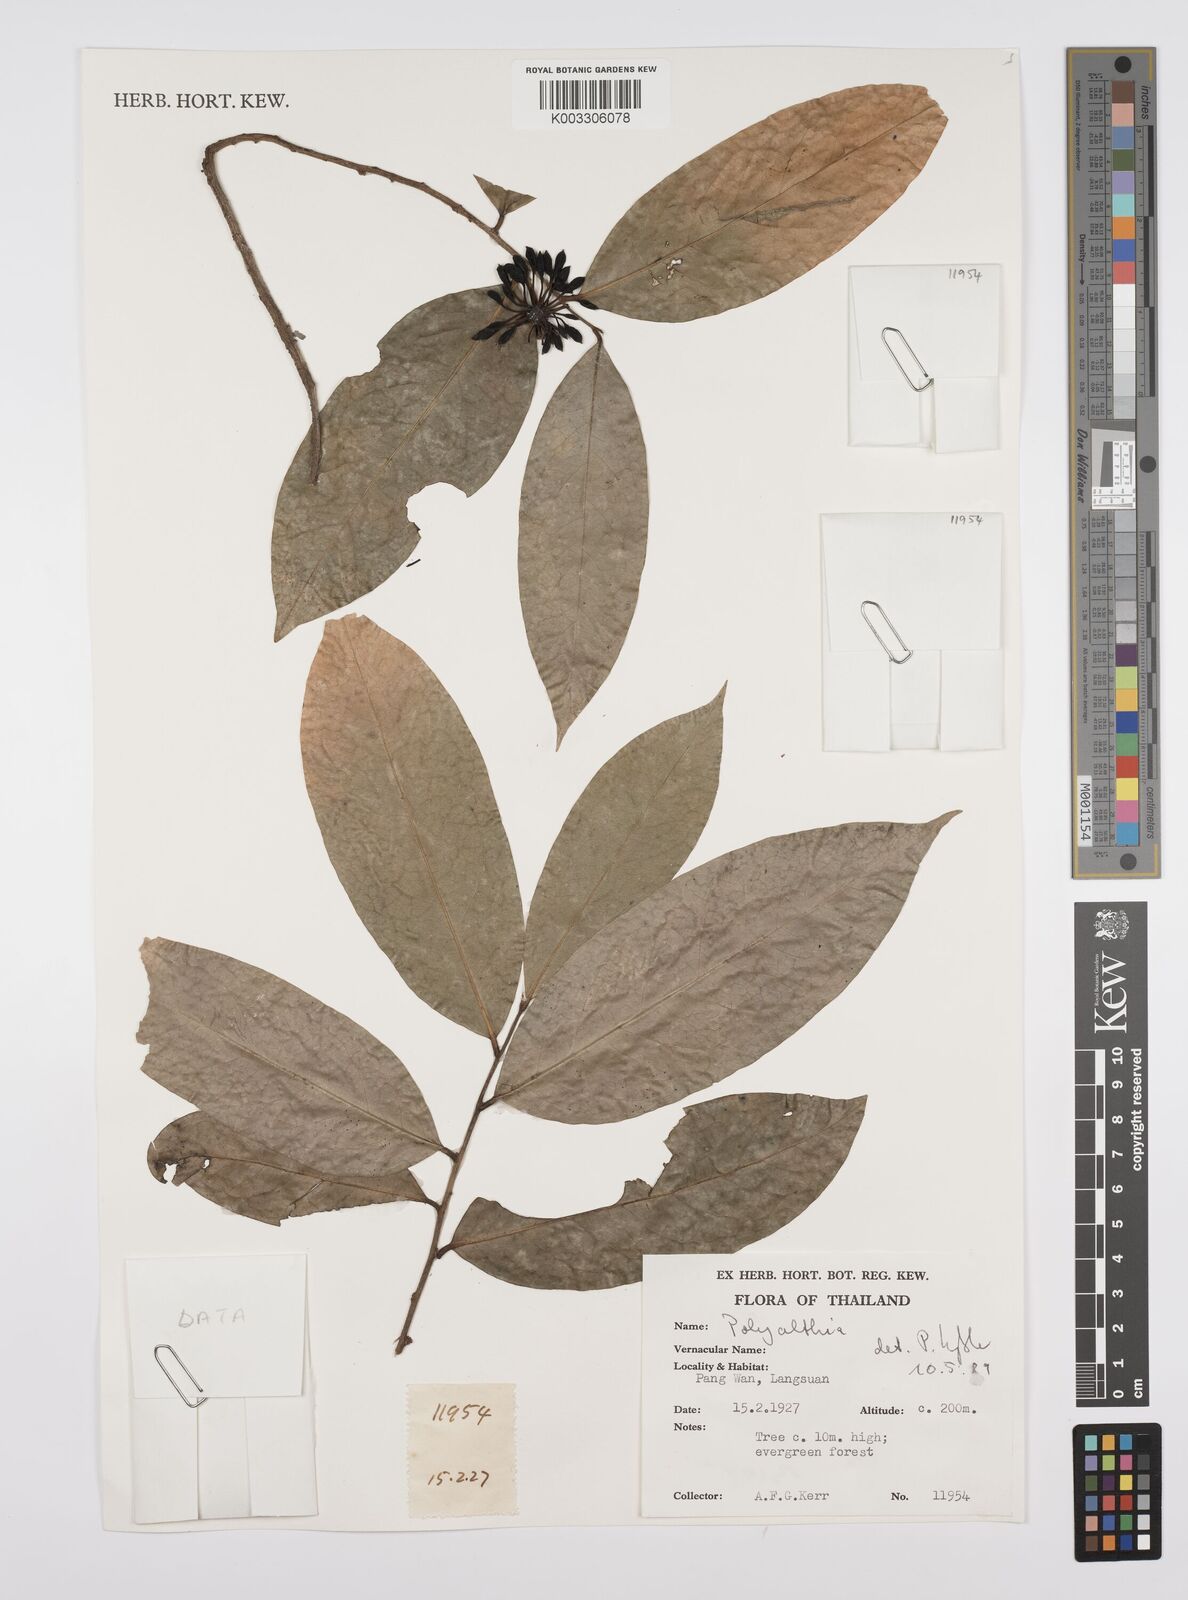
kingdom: Plantae
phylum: Tracheophyta
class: Magnoliopsida
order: Magnoliales
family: Annonaceae
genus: Huberantha
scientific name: Huberantha
